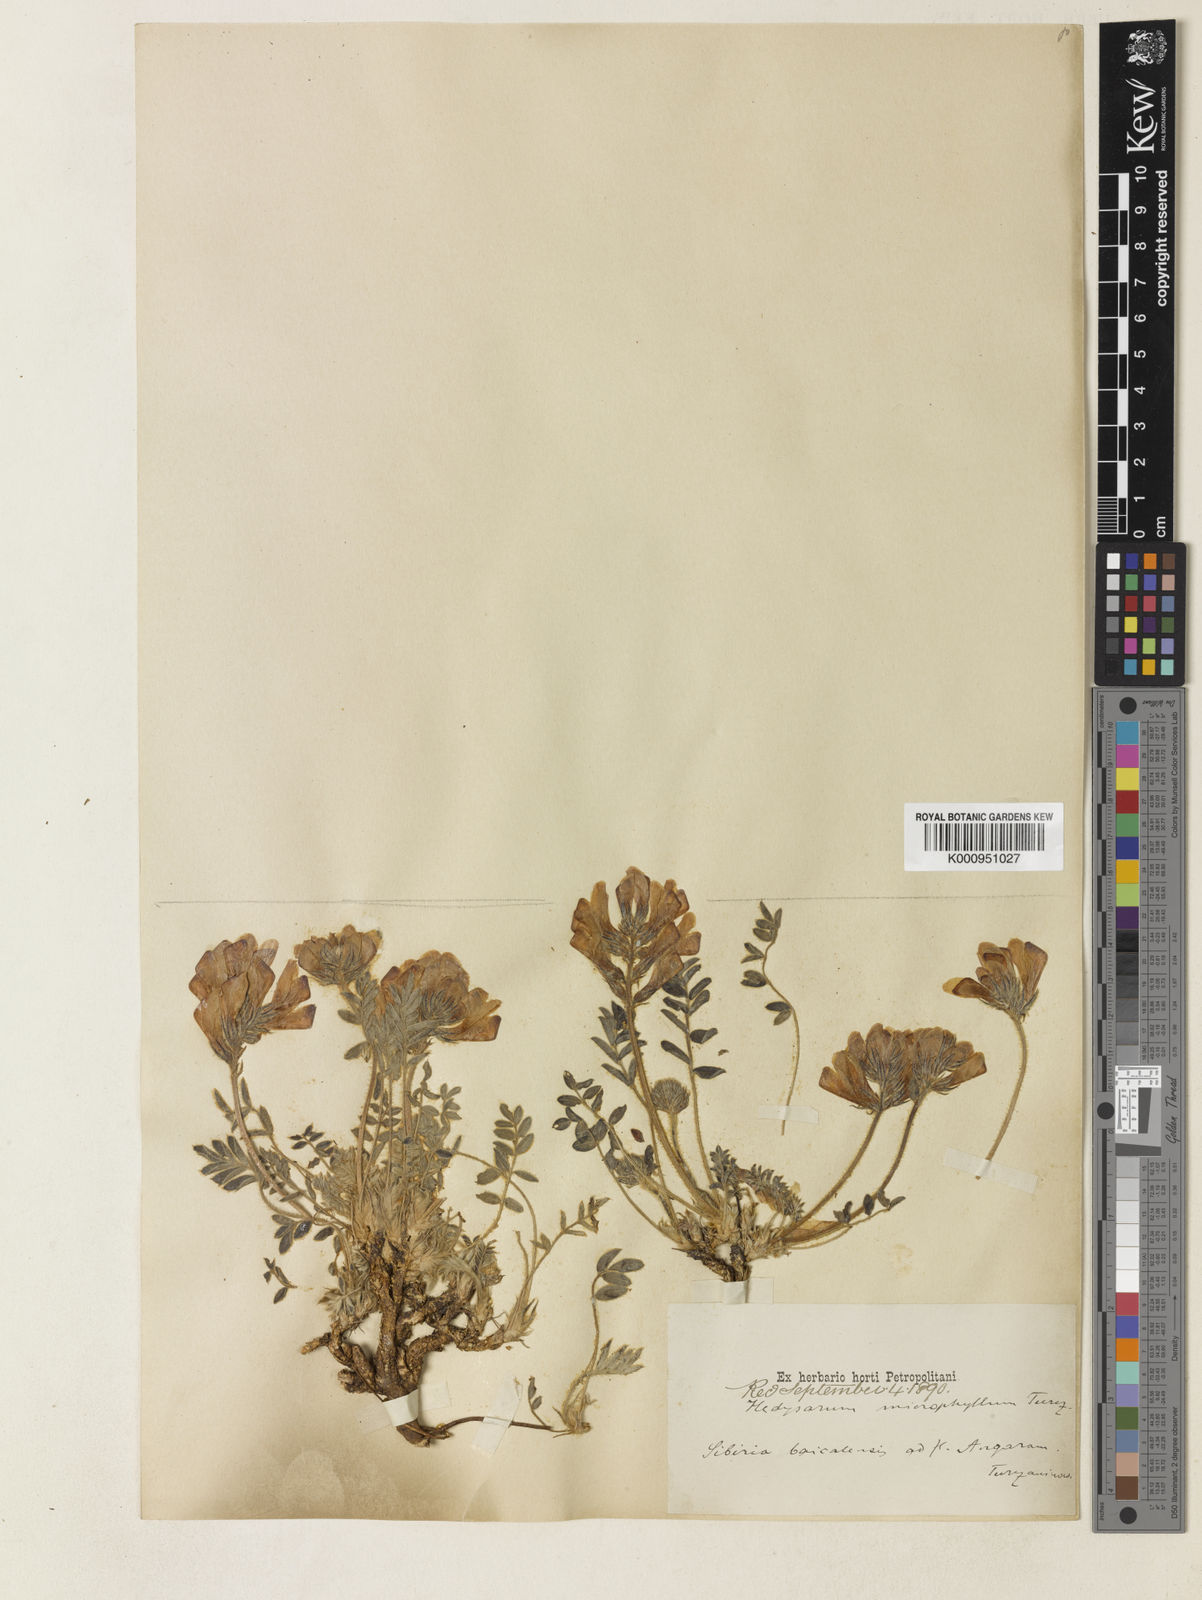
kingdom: Plantae
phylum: Tracheophyta
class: Magnoliopsida
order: Fabales
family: Fabaceae
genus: Hedysarum
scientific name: Hedysarum turczaninovii
